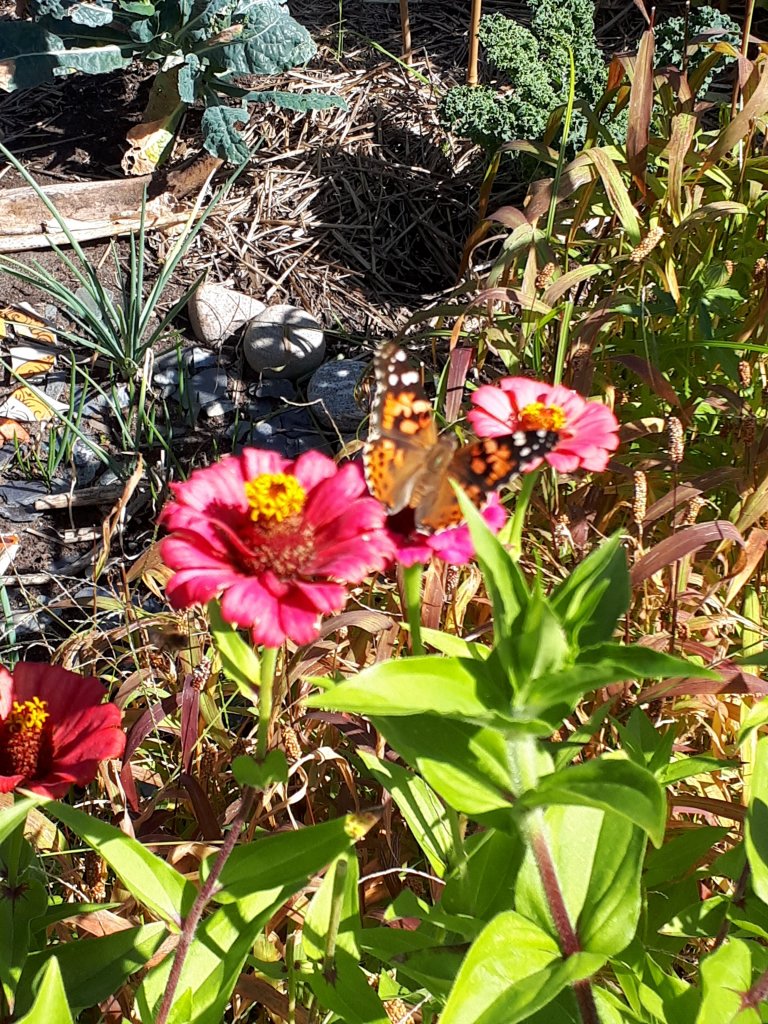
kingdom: Animalia
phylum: Arthropoda
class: Insecta
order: Lepidoptera
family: Nymphalidae
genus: Vanessa
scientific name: Vanessa cardui
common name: Painted Lady
